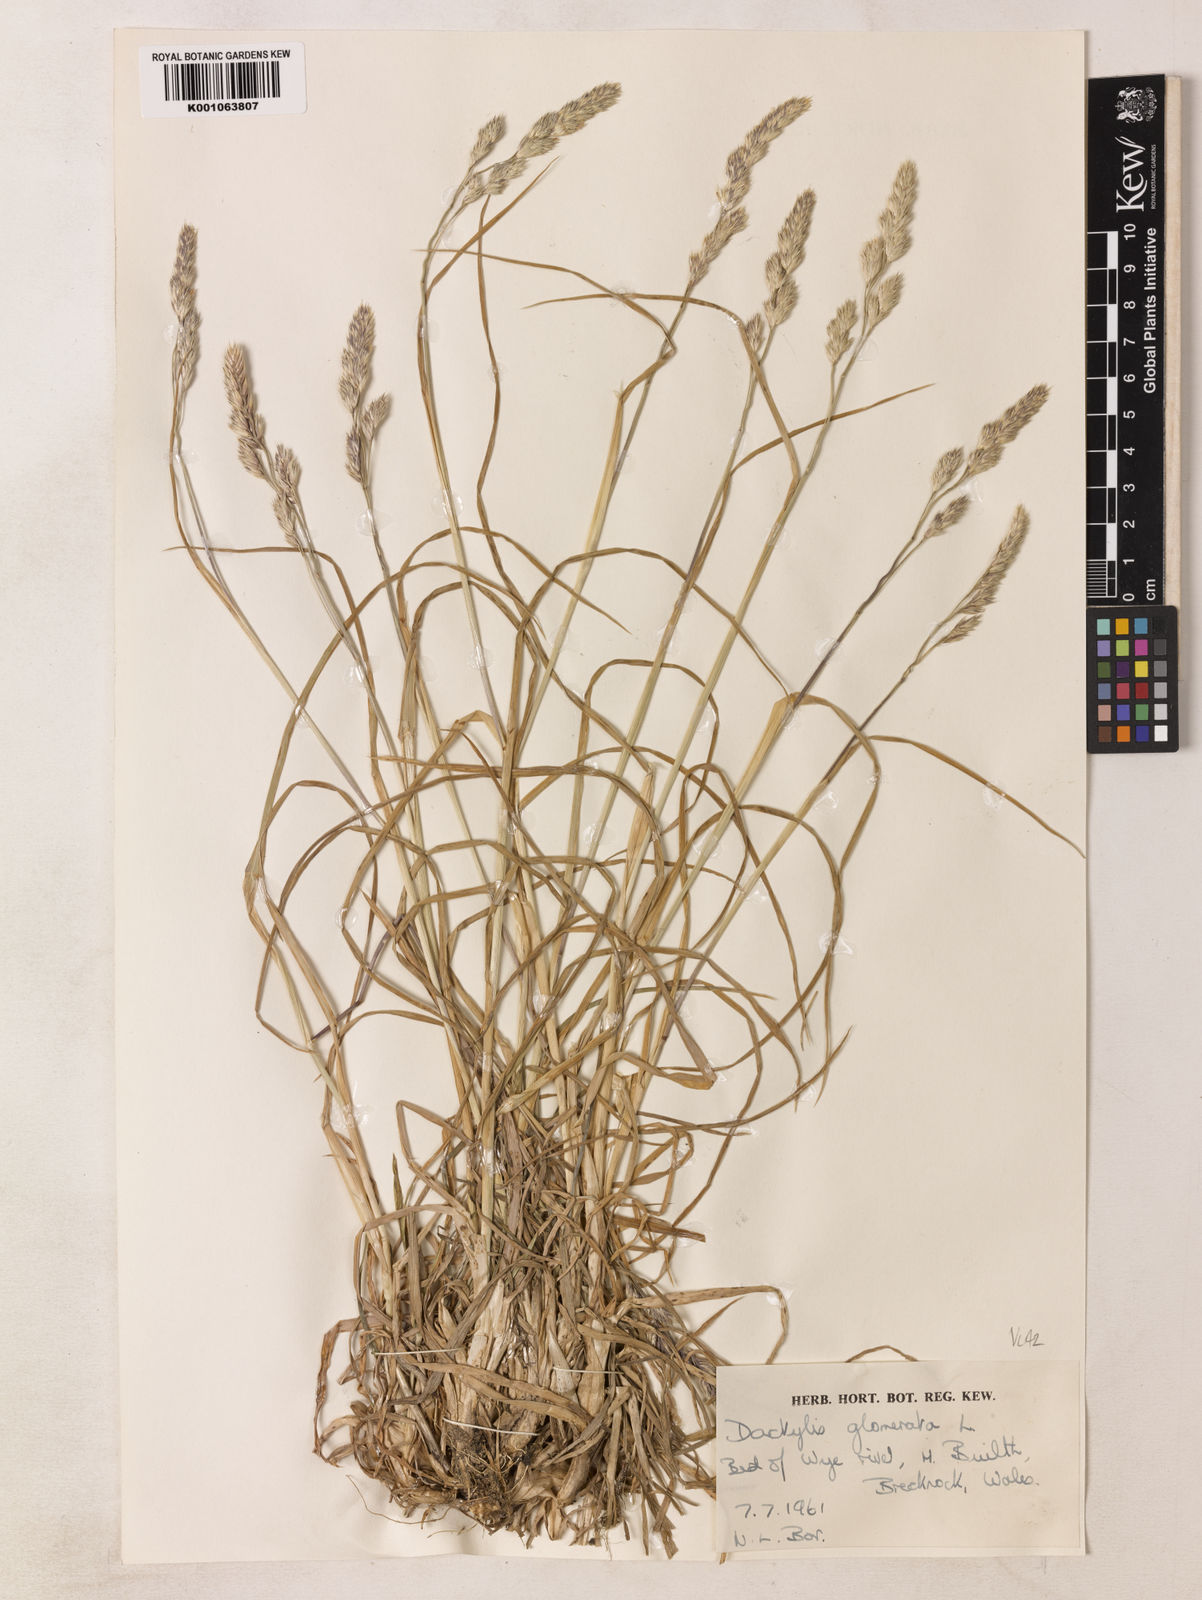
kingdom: Plantae
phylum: Tracheophyta
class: Liliopsida
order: Poales
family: Poaceae
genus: Dactylis
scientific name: Dactylis glomerata
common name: Orchardgrass
